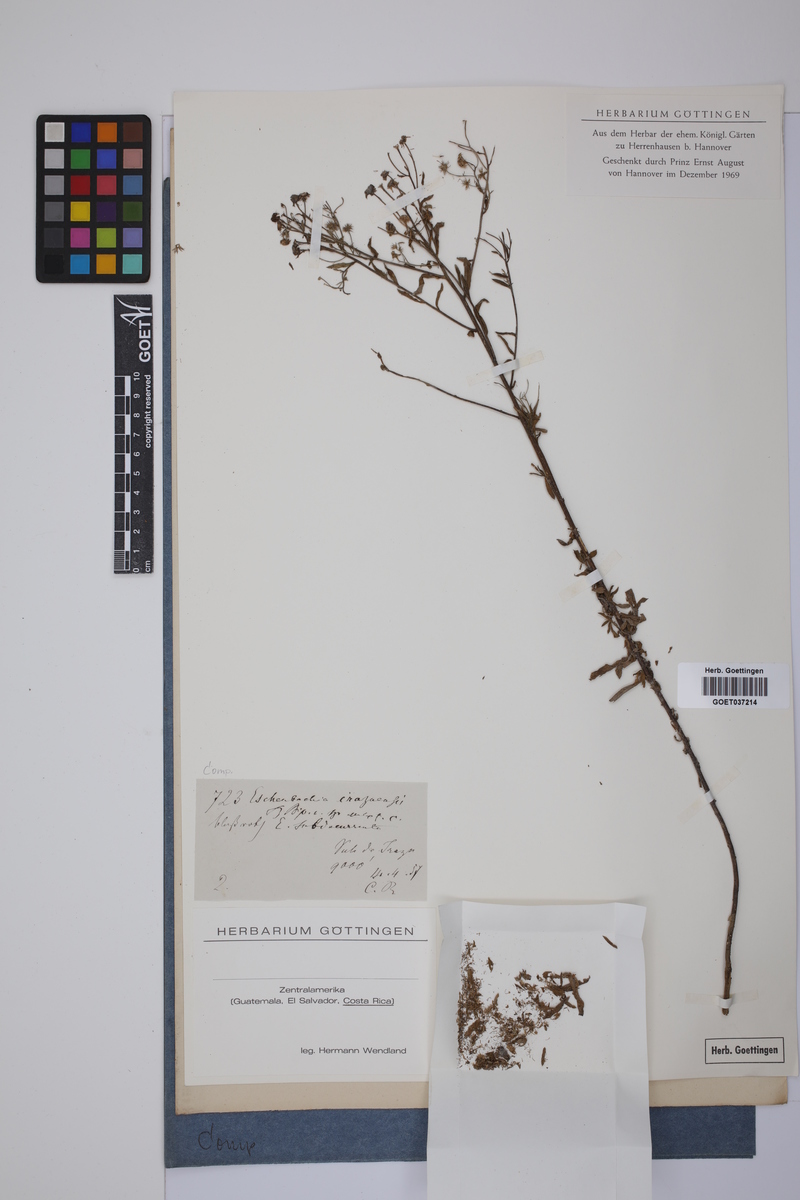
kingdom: Plantae
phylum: Tracheophyta
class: Magnoliopsida
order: Asterales
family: Asteraceae
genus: Eschenbachia
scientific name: Eschenbachia
